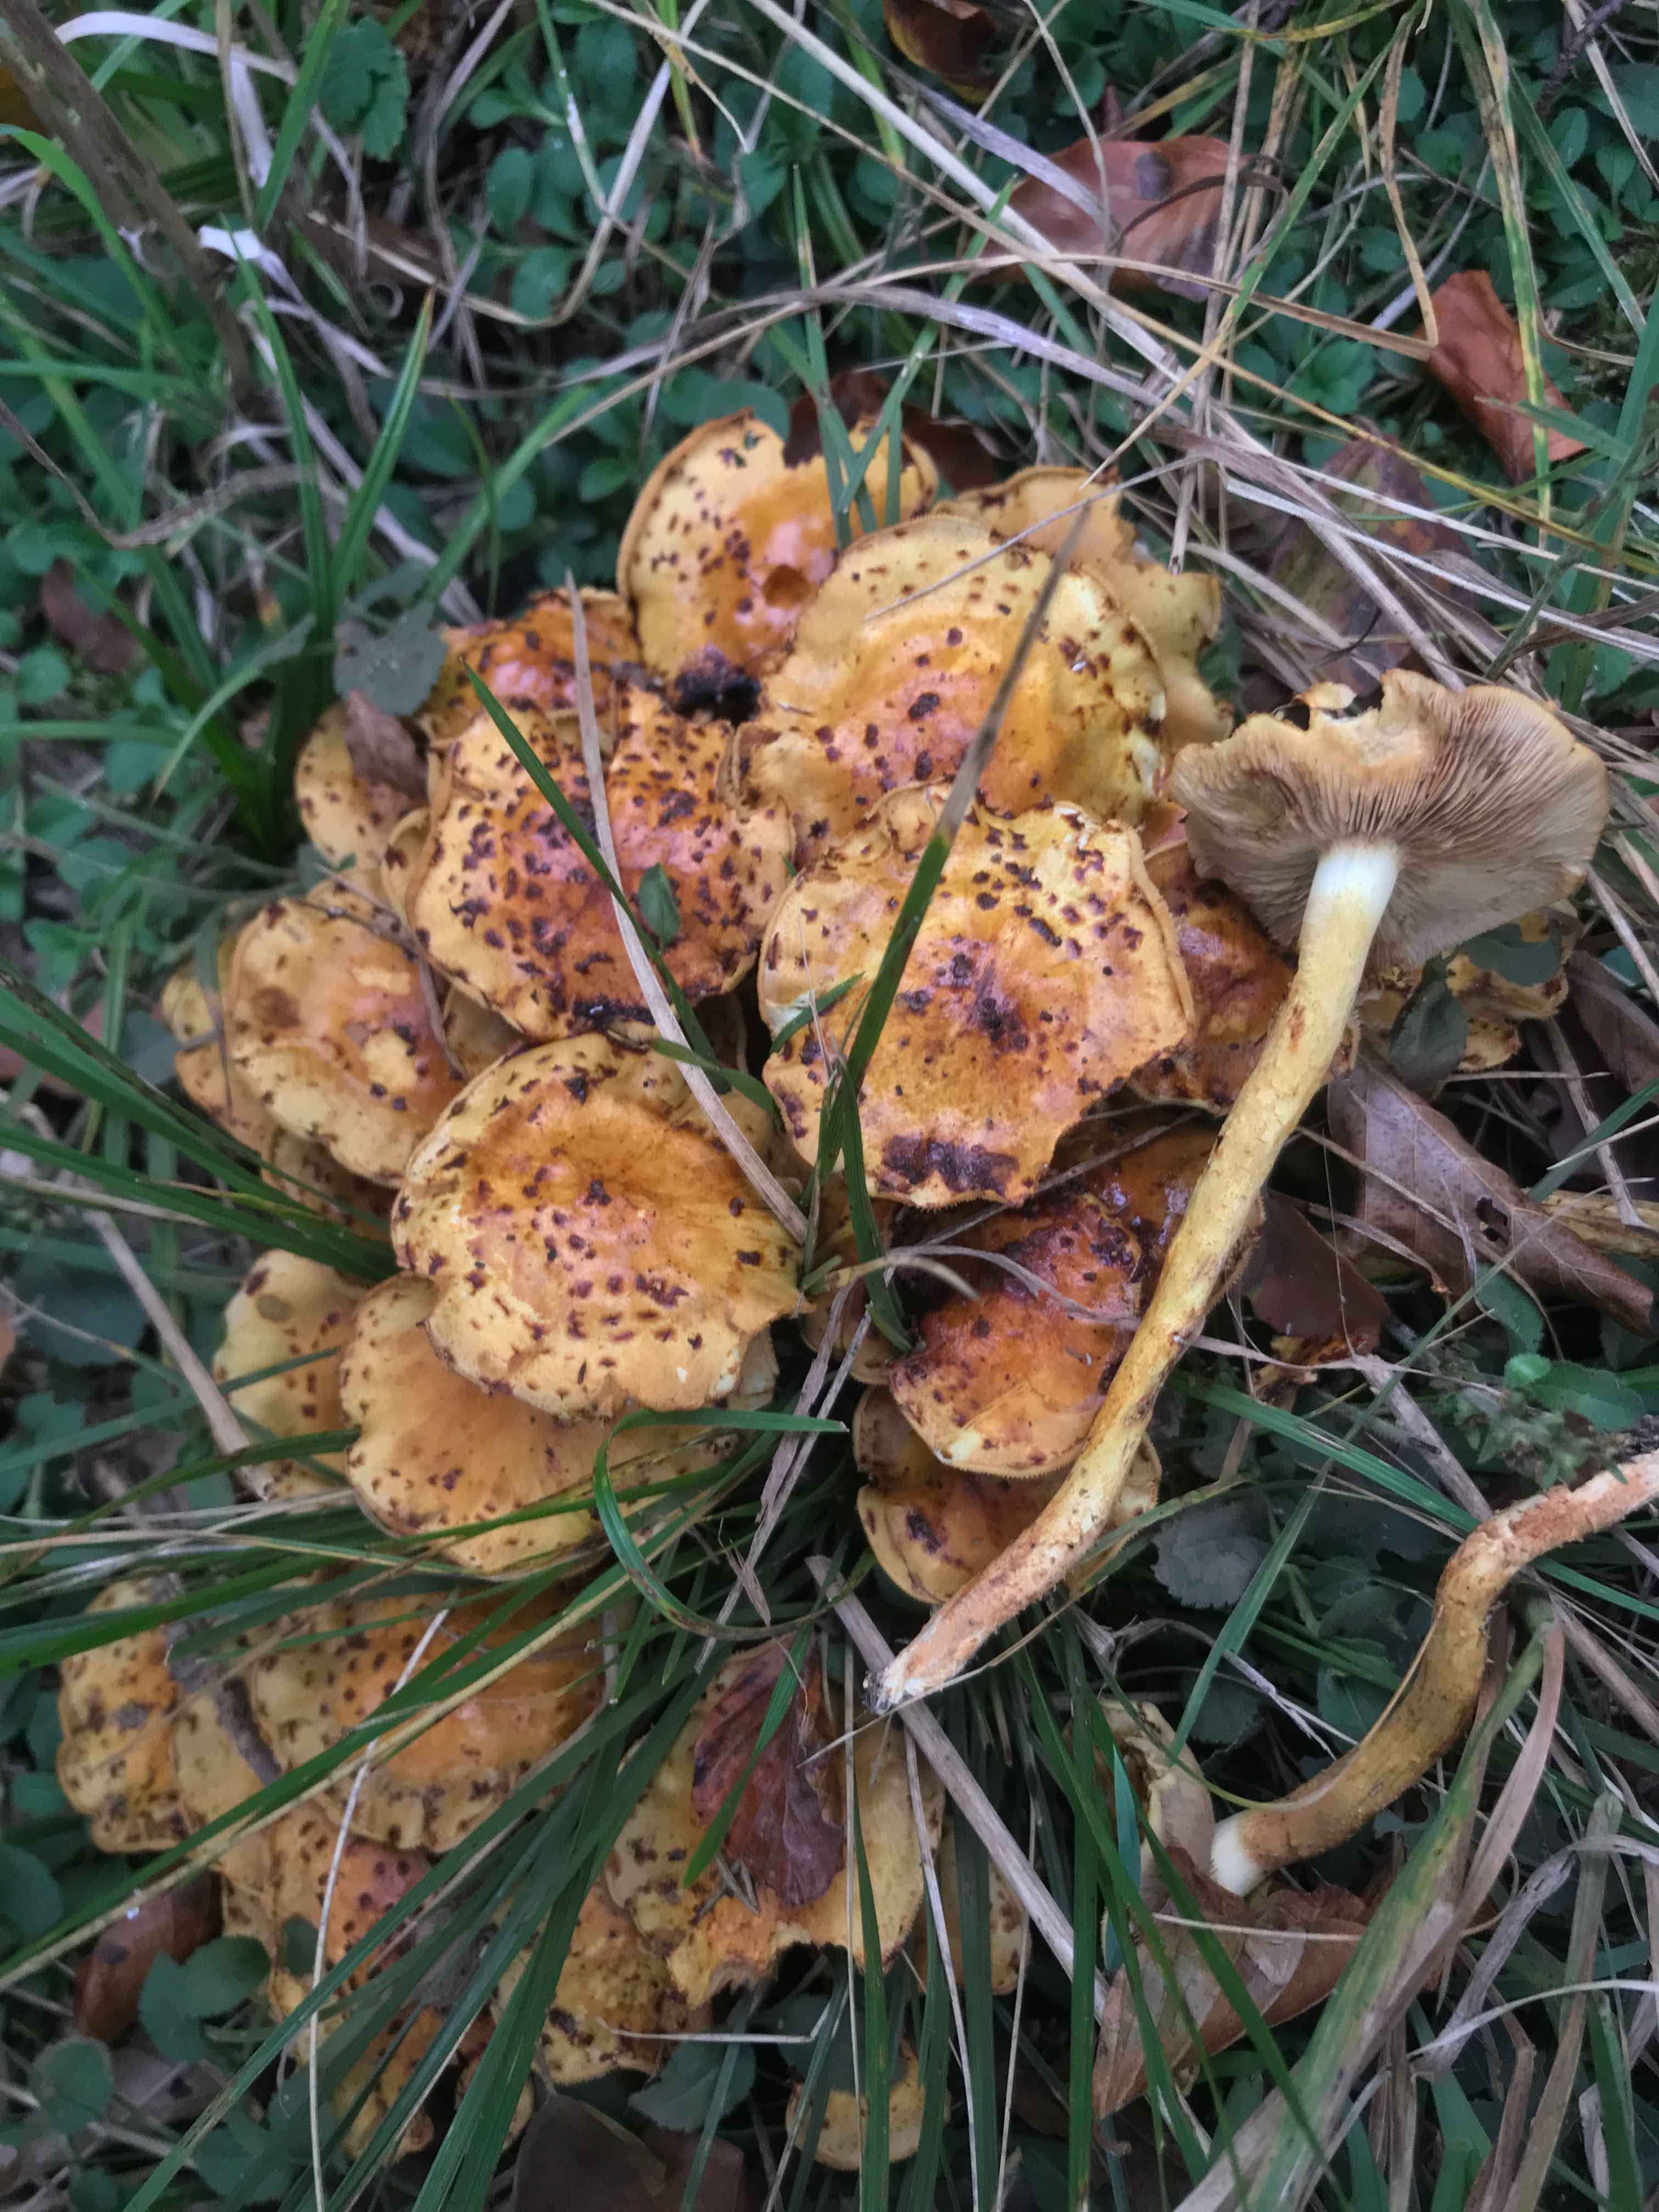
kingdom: Fungi
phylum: Basidiomycota
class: Agaricomycetes
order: Agaricales
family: Strophariaceae
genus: Pholiota
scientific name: Pholiota jahnii
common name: slimet skælhat
